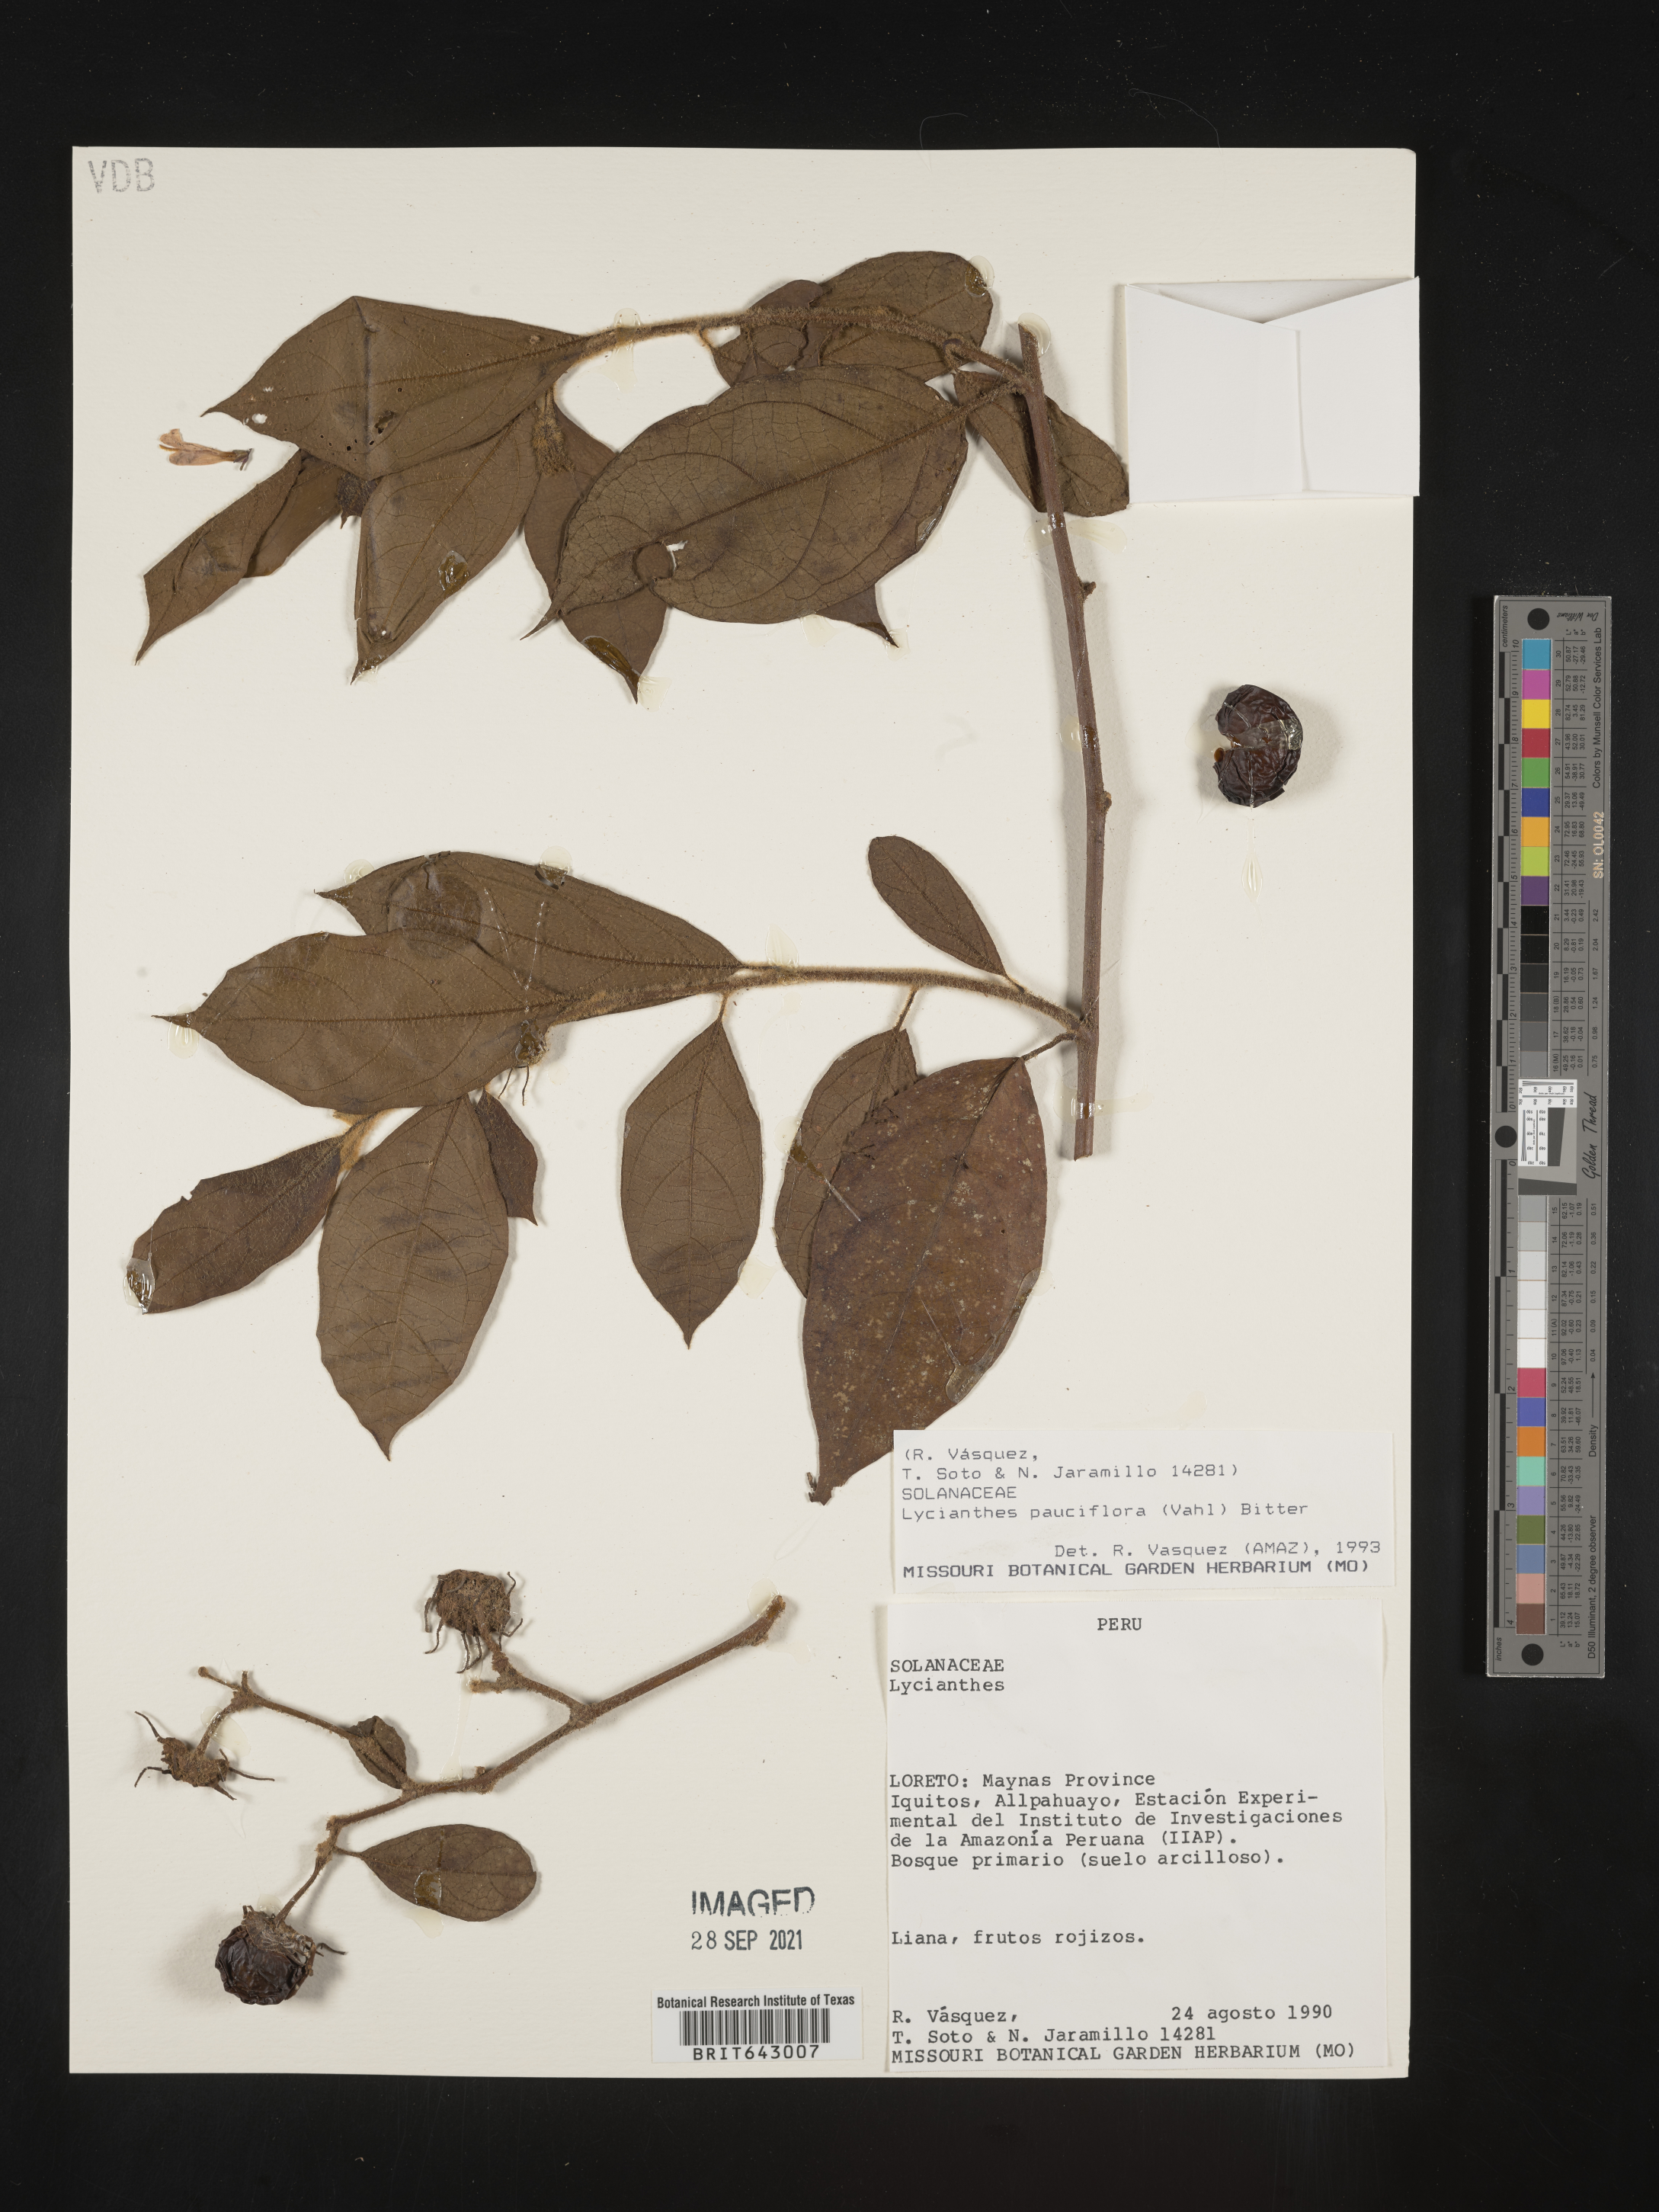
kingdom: Plantae
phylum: Tracheophyta
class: Magnoliopsida
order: Solanales
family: Solanaceae
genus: Lycianthes
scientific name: Lycianthes
